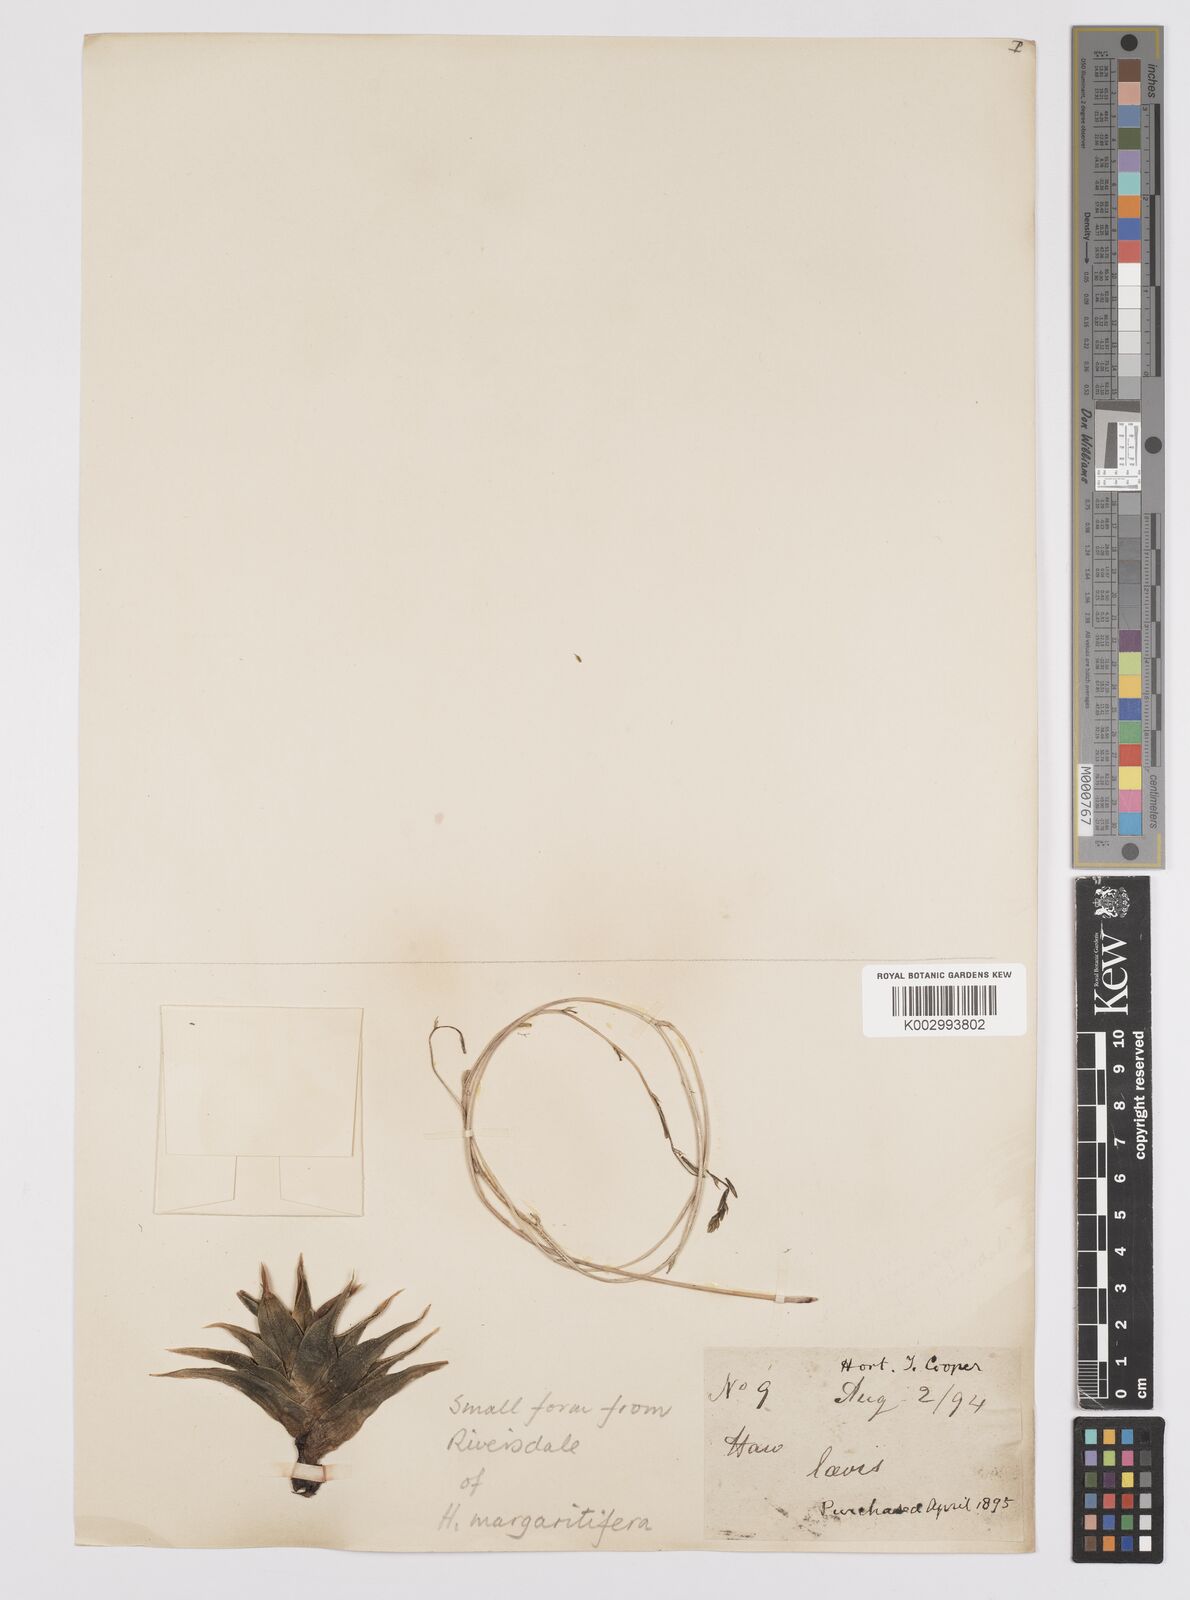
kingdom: Plantae
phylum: Tracheophyta
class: Liliopsida
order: Asparagales
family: Asphodelaceae
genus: Tulista
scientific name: Tulista pumila
